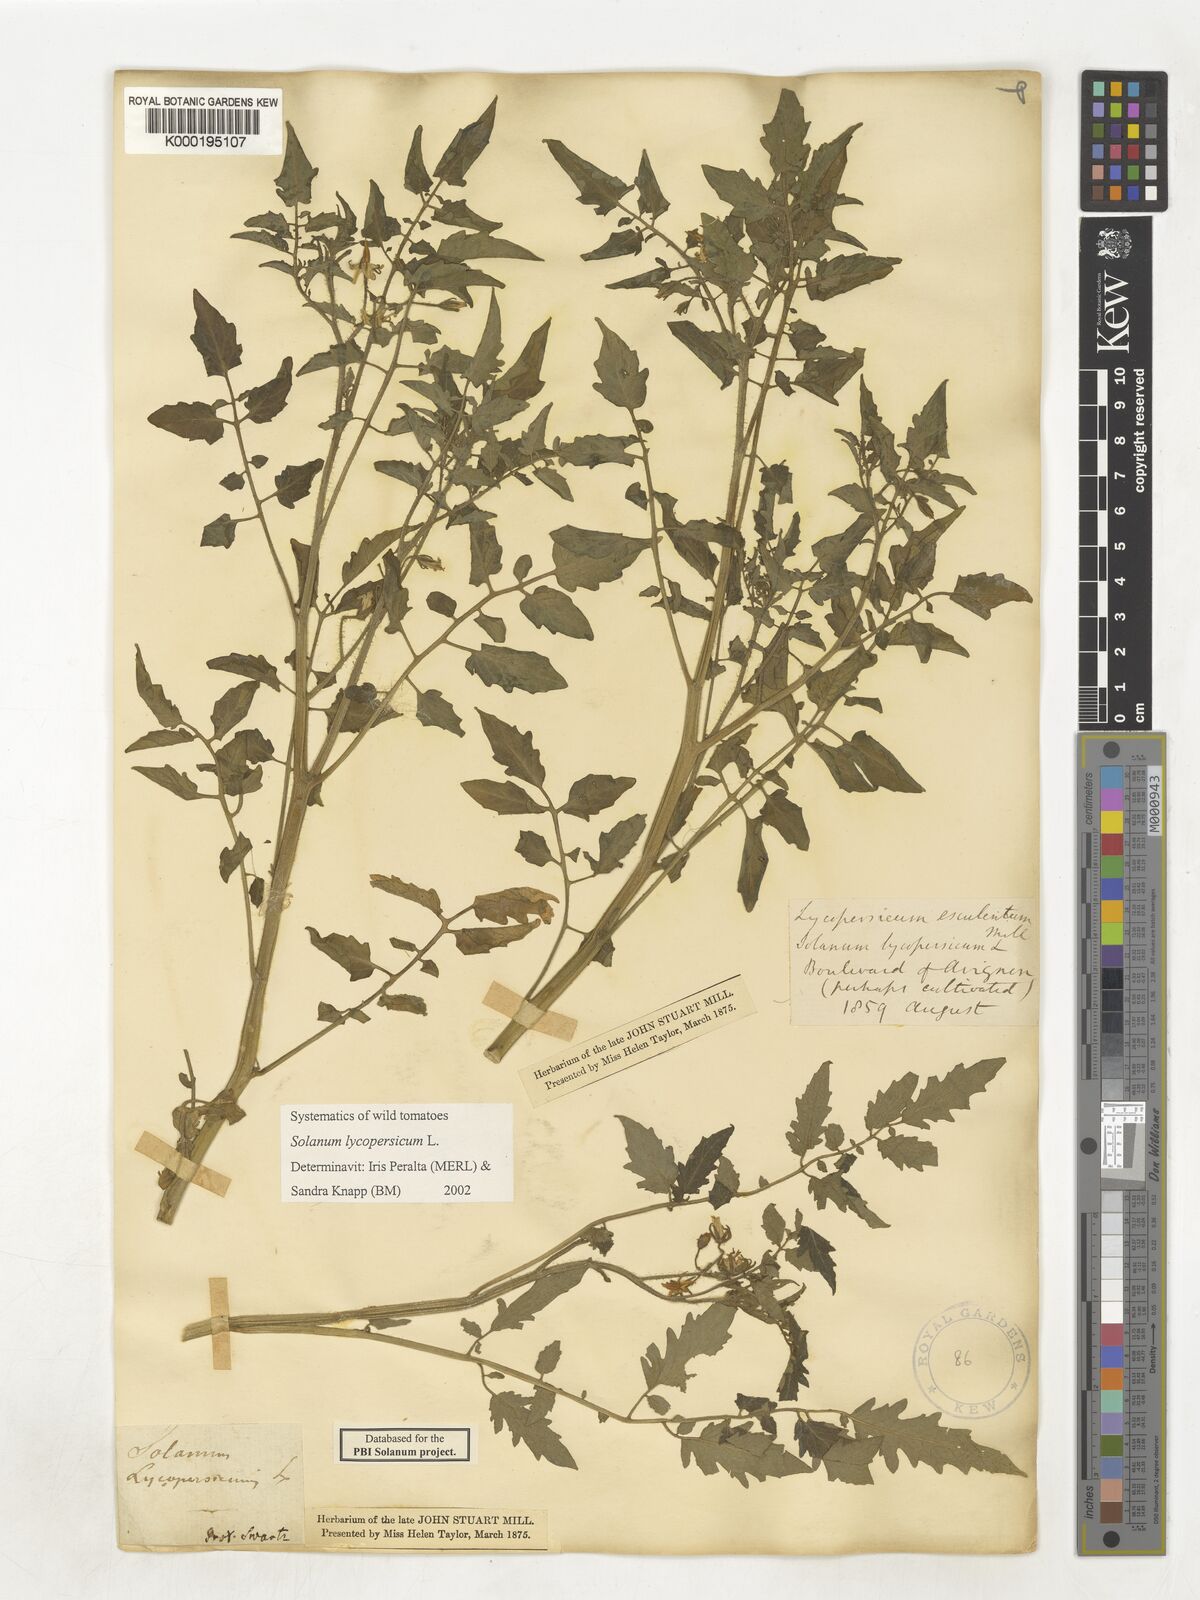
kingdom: Plantae
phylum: Tracheophyta
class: Magnoliopsida
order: Solanales
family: Solanaceae
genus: Solanum
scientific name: Solanum lycopersicum
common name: Garden tomato
